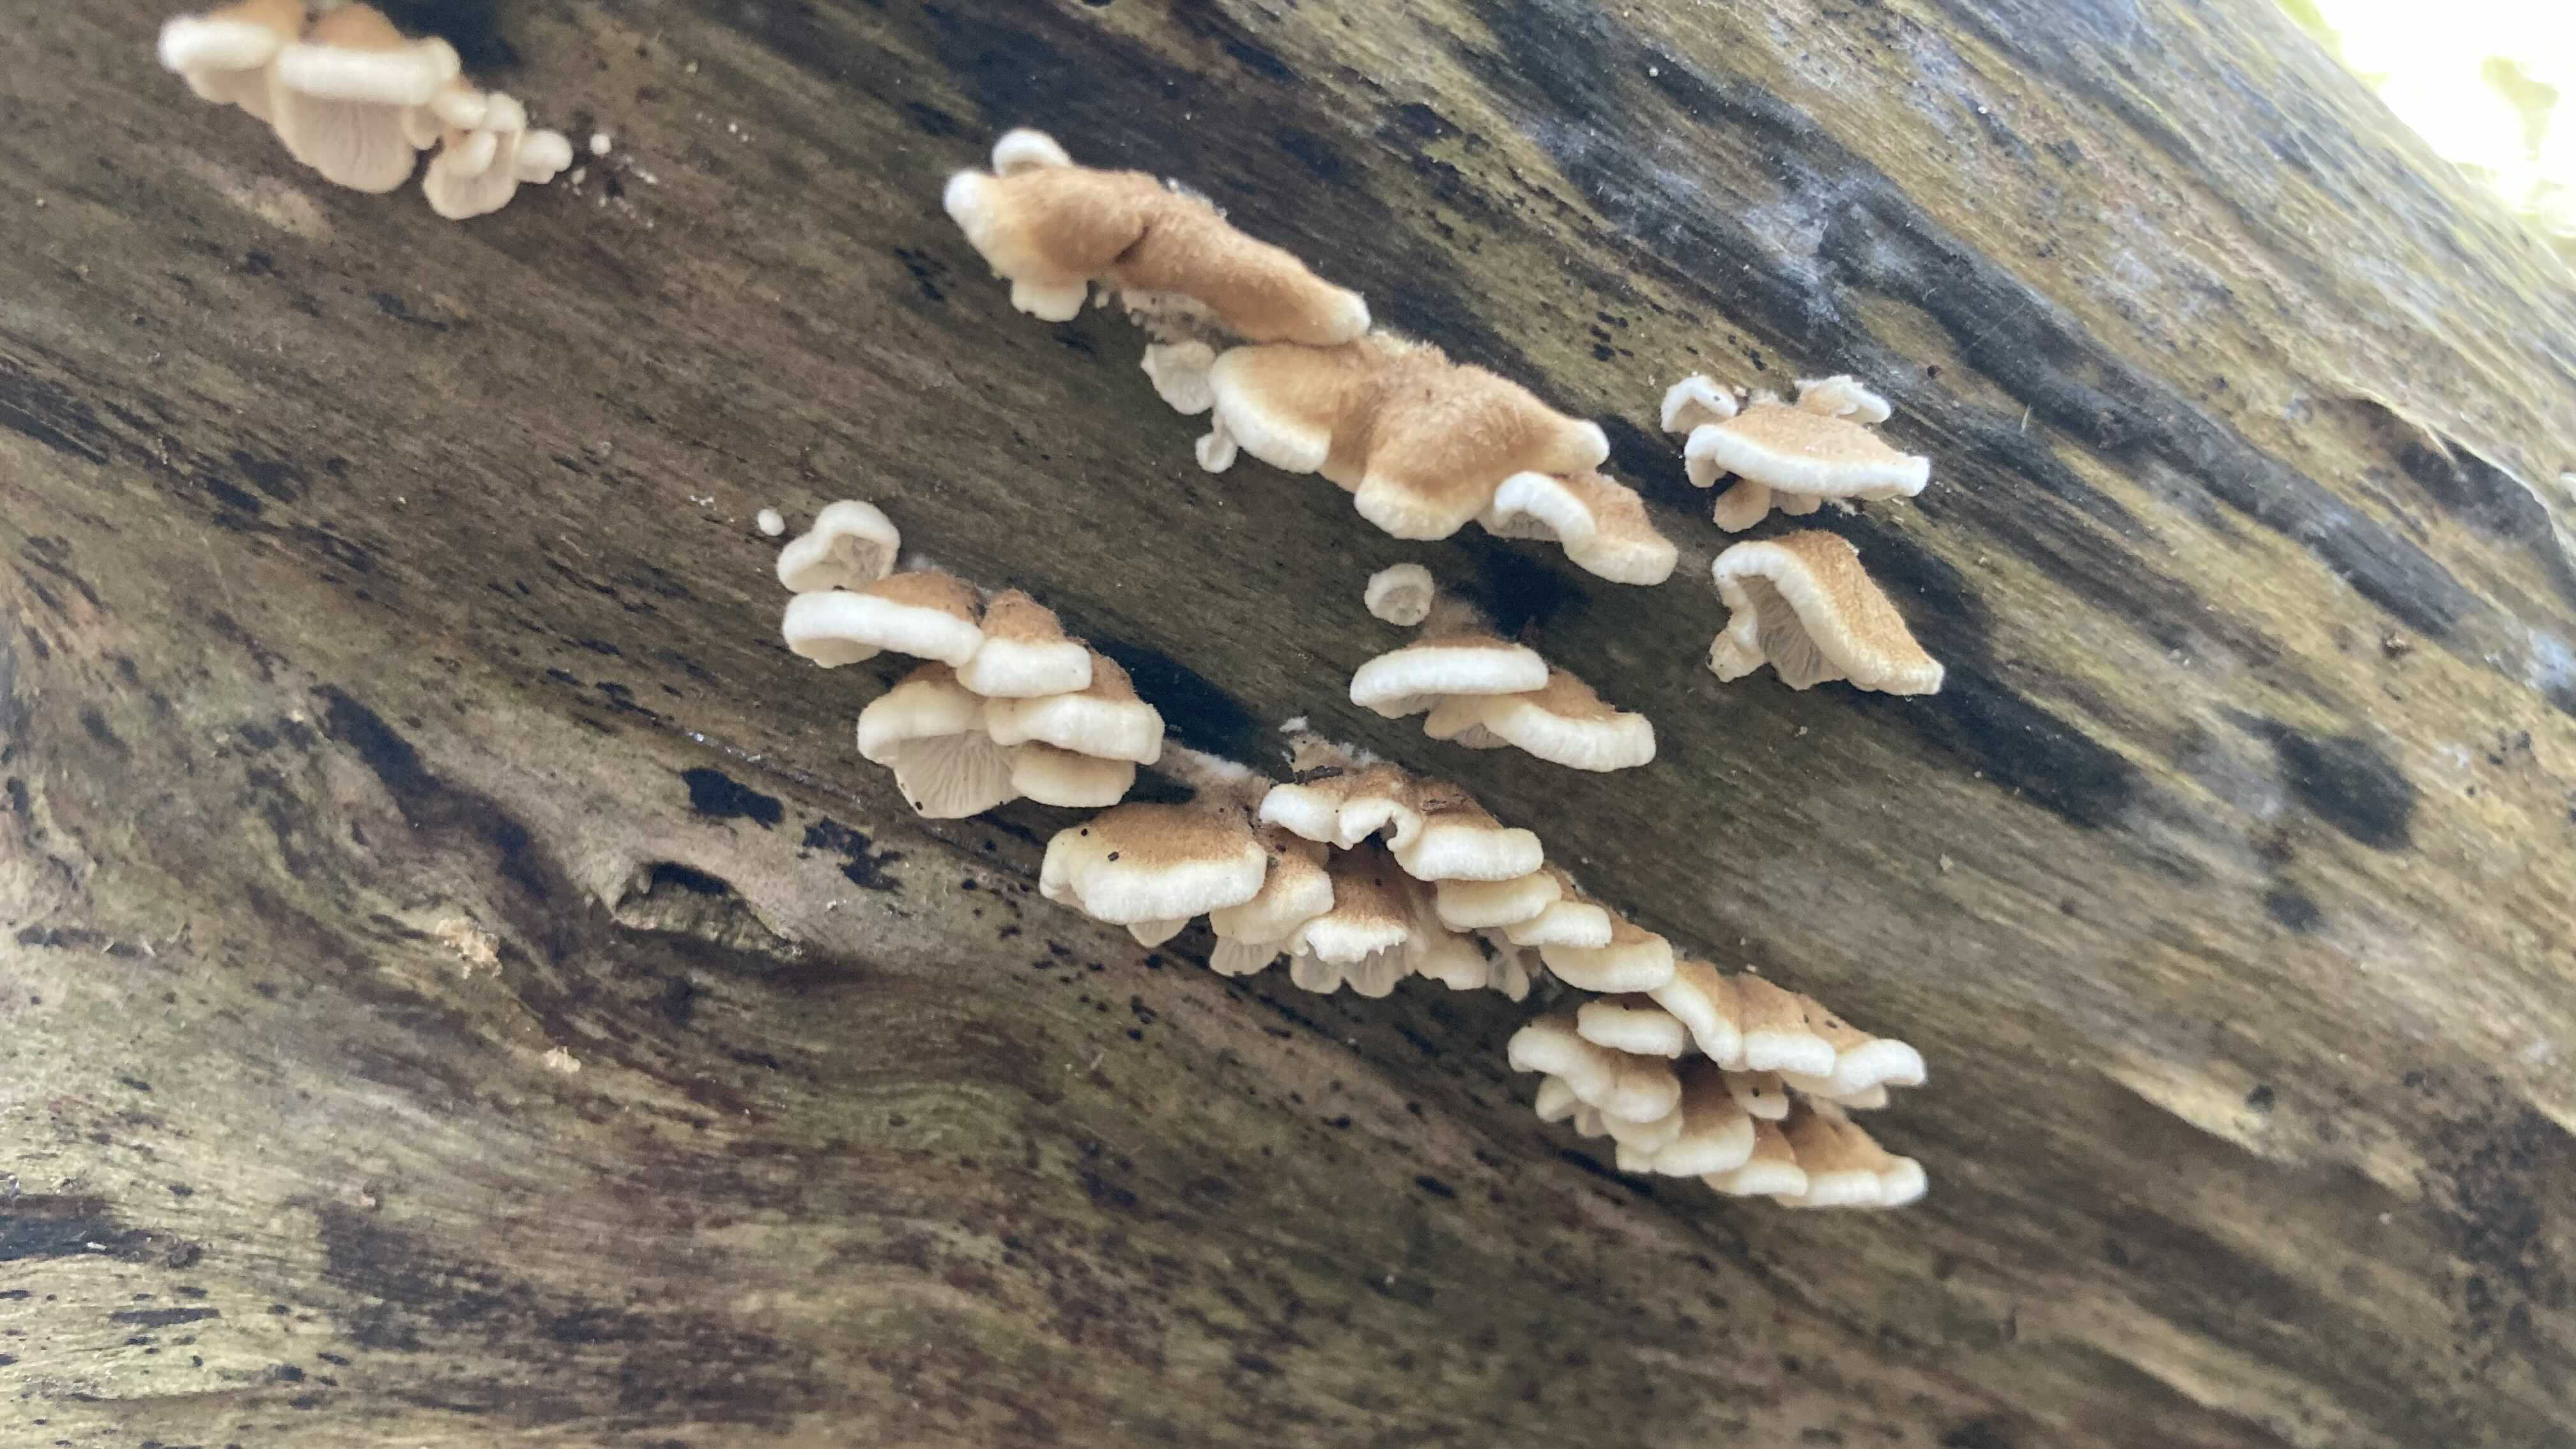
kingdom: Fungi
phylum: Basidiomycota
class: Agaricomycetes
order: Amylocorticiales
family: Amylocorticiaceae
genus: Plicaturopsis
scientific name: Plicaturopsis crispa
